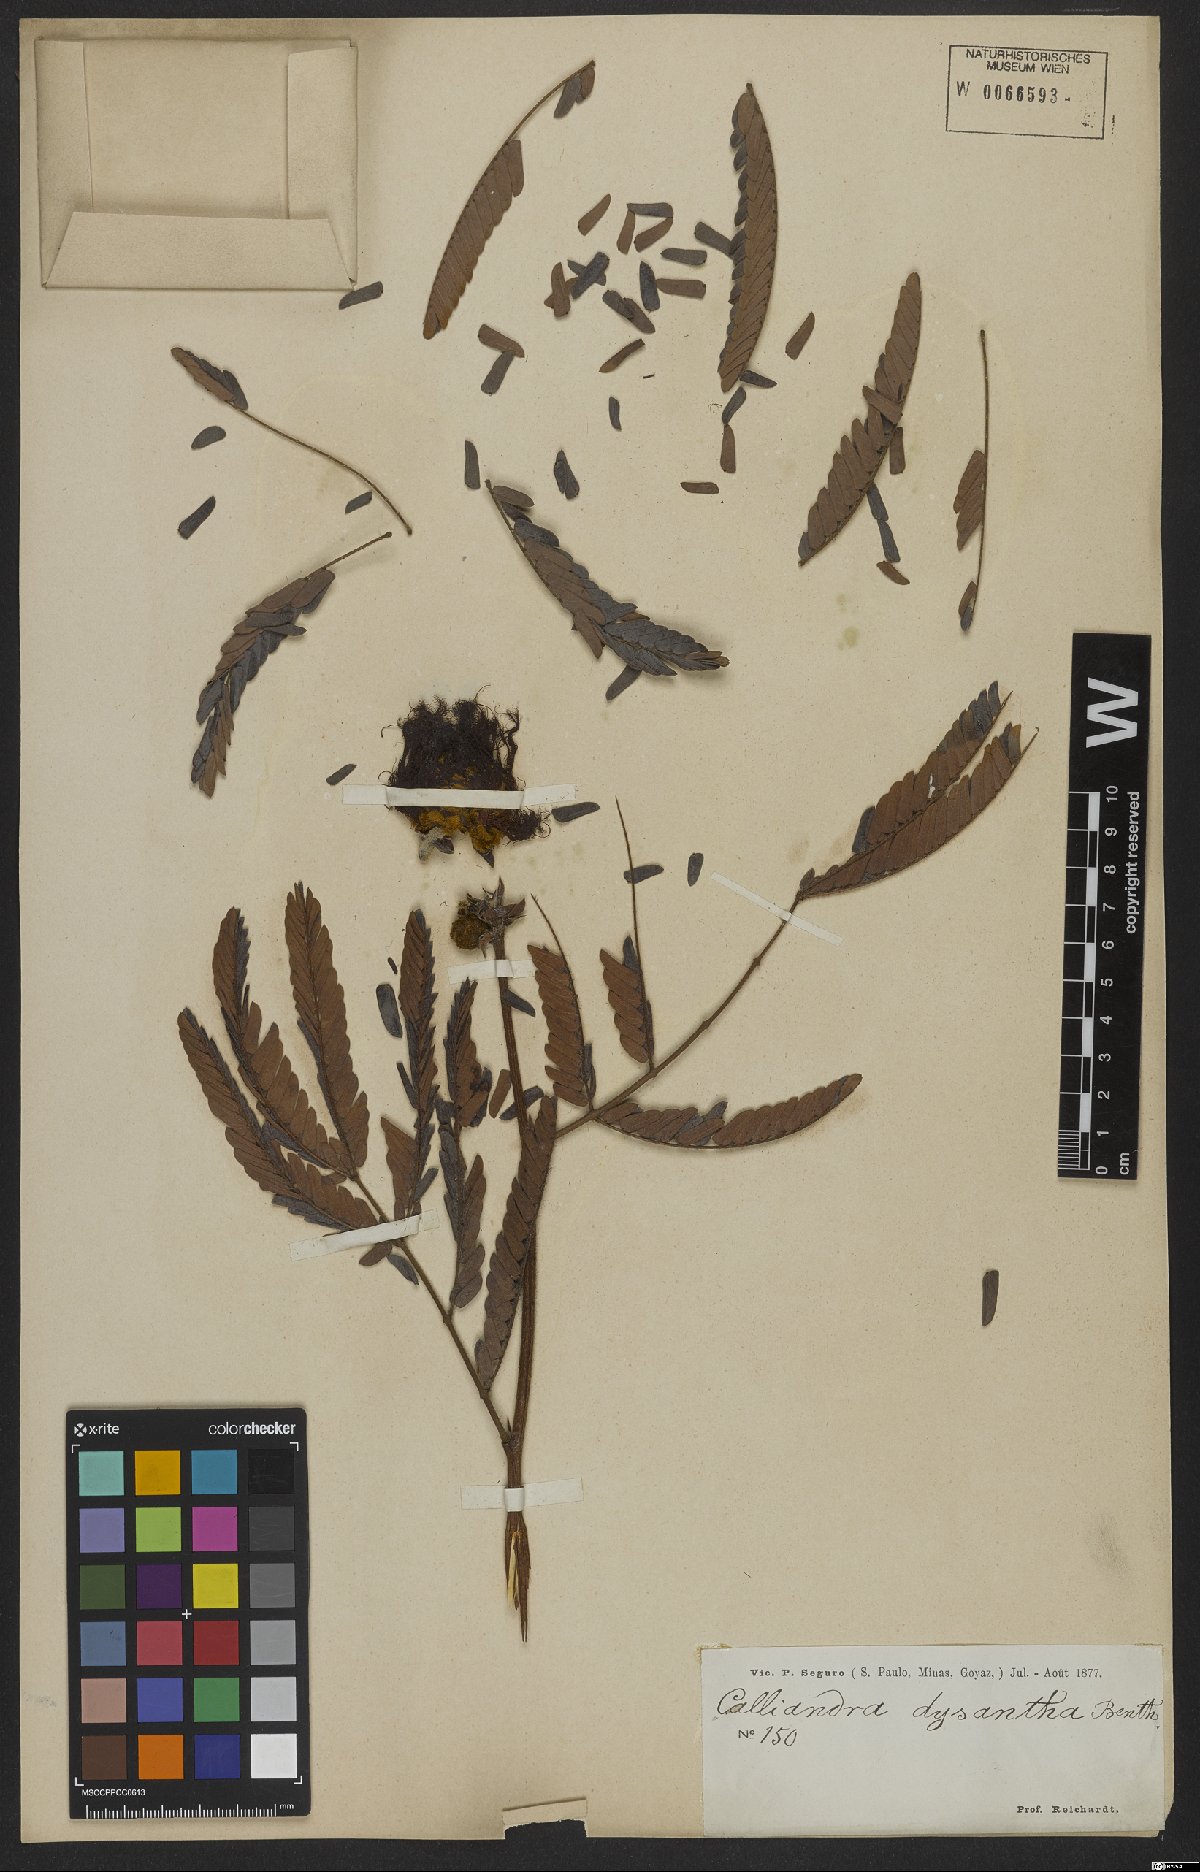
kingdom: Plantae
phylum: Tracheophyta
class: Magnoliopsida
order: Fabales
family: Fabaceae
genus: Calliandra
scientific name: Calliandra dysantha
